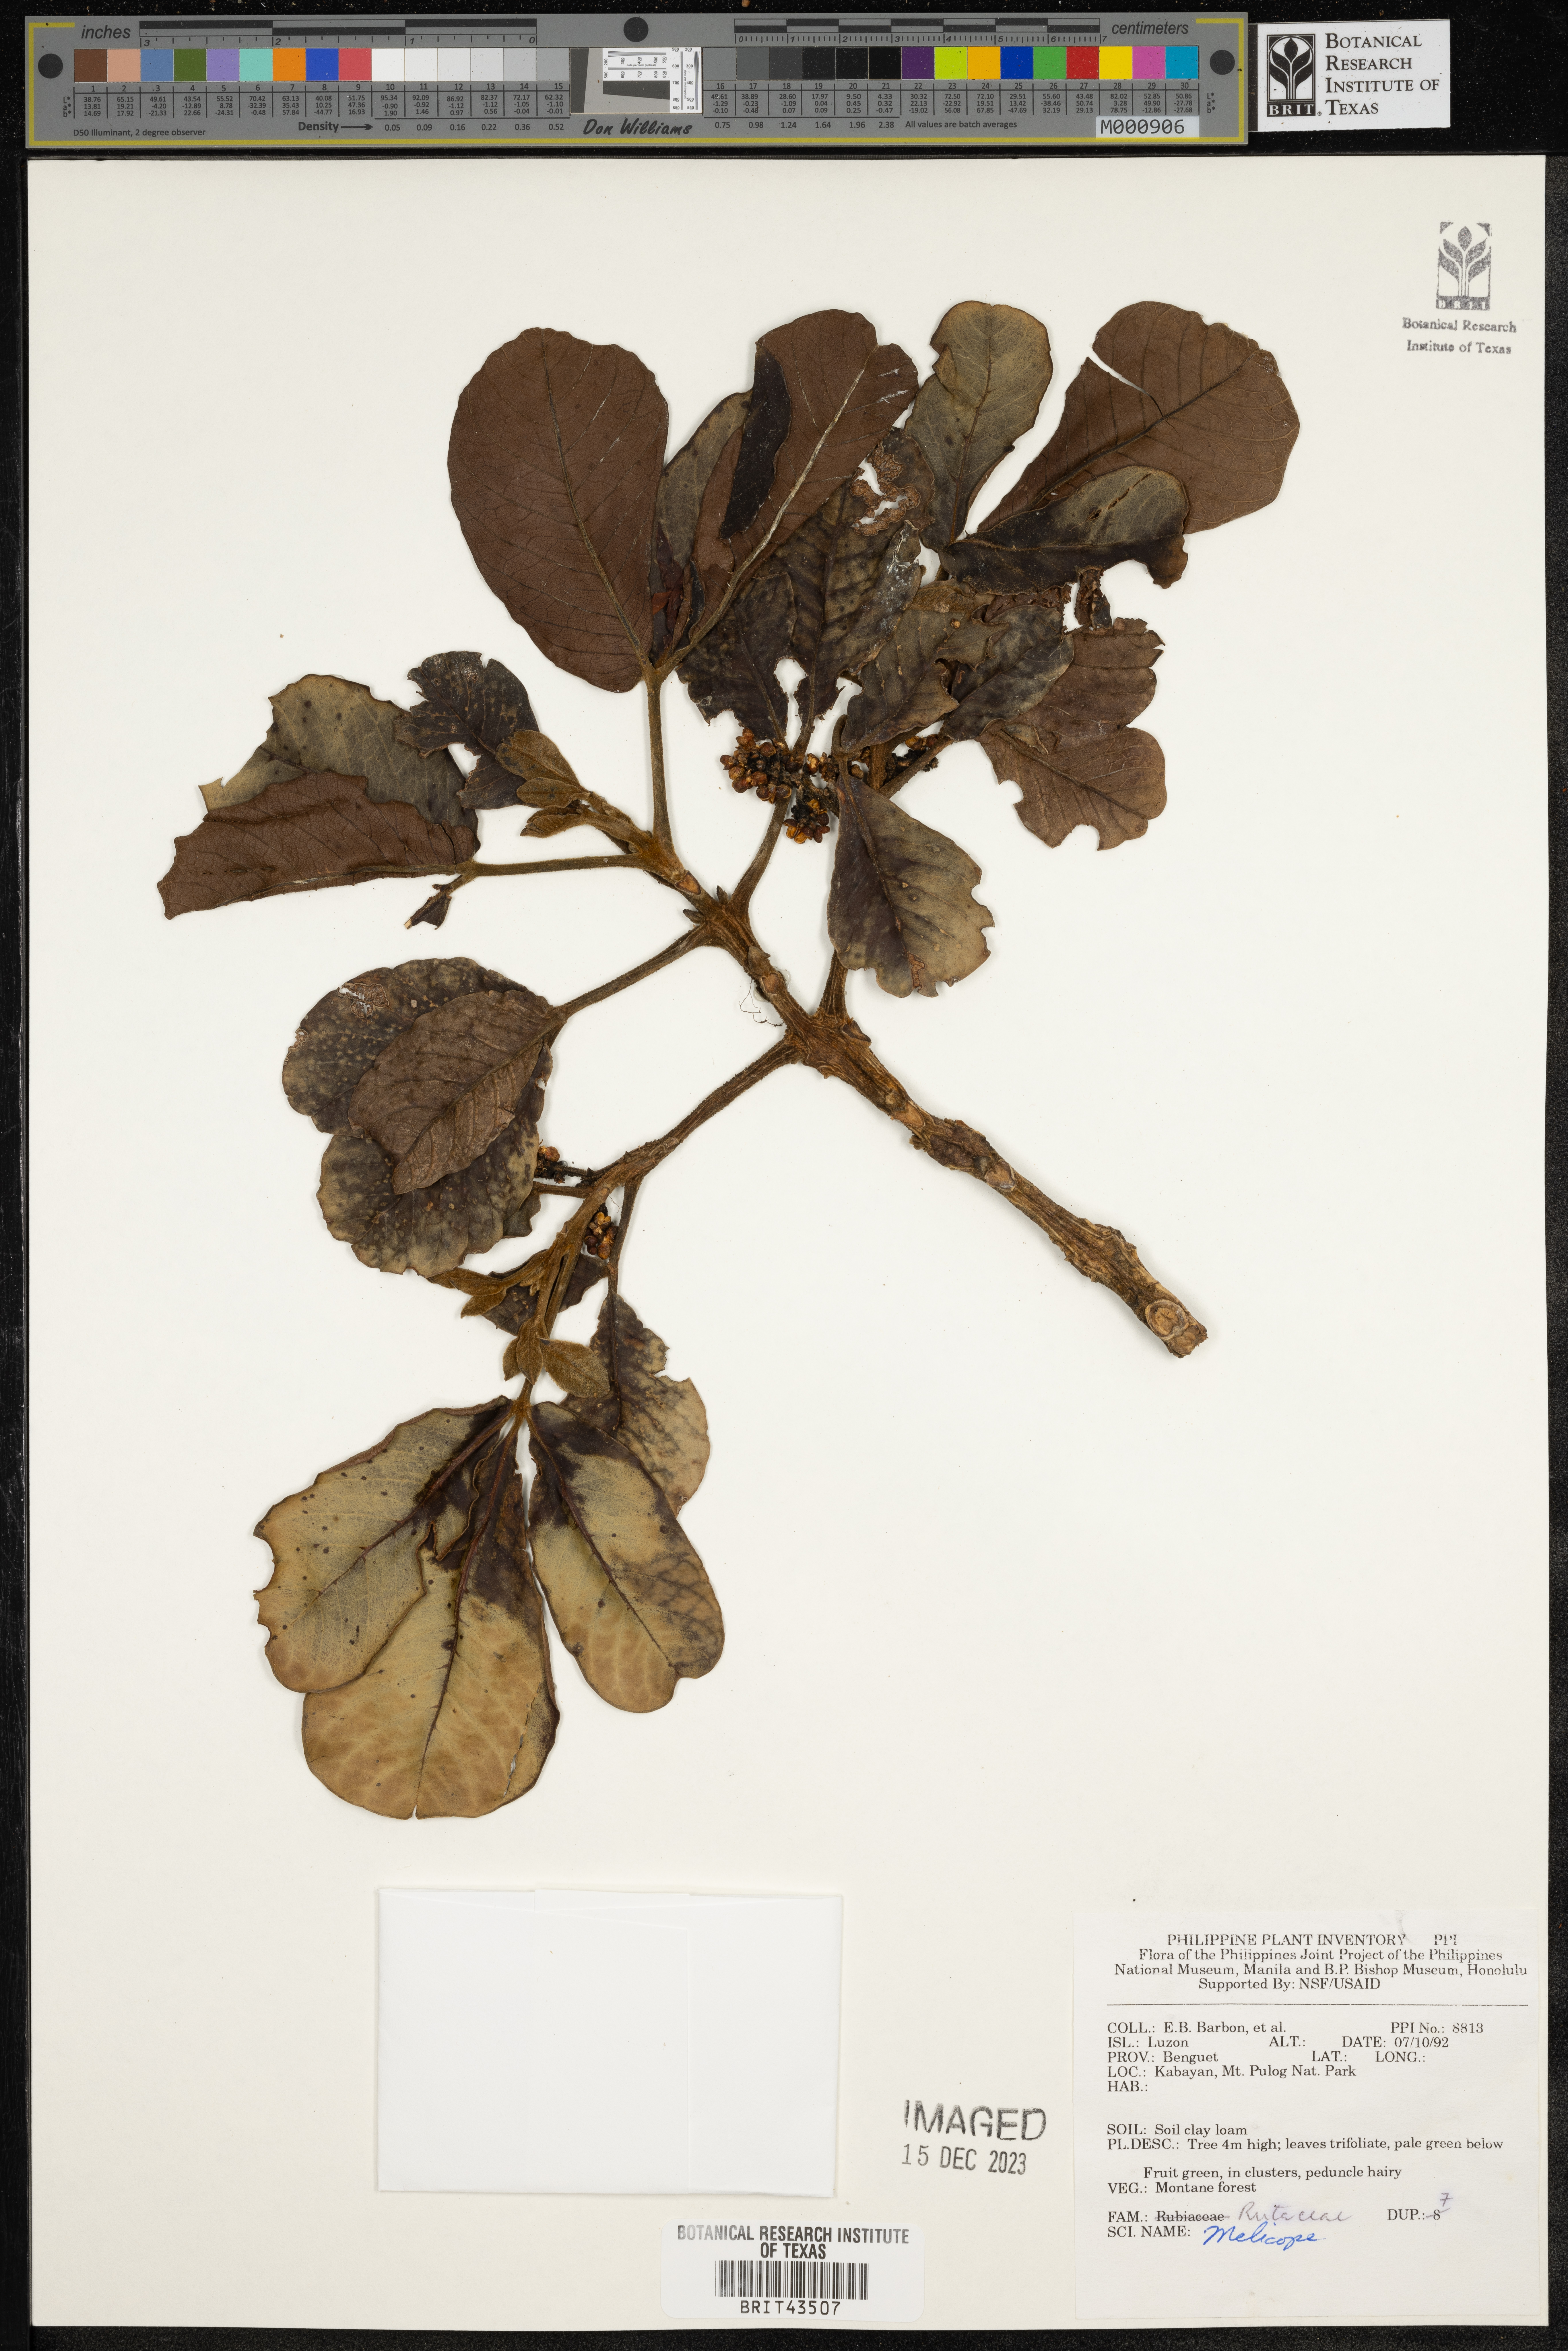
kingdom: Plantae
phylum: Tracheophyta
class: Magnoliopsida
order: Sapindales
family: Rutaceae
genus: Melicope
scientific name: Melicope
